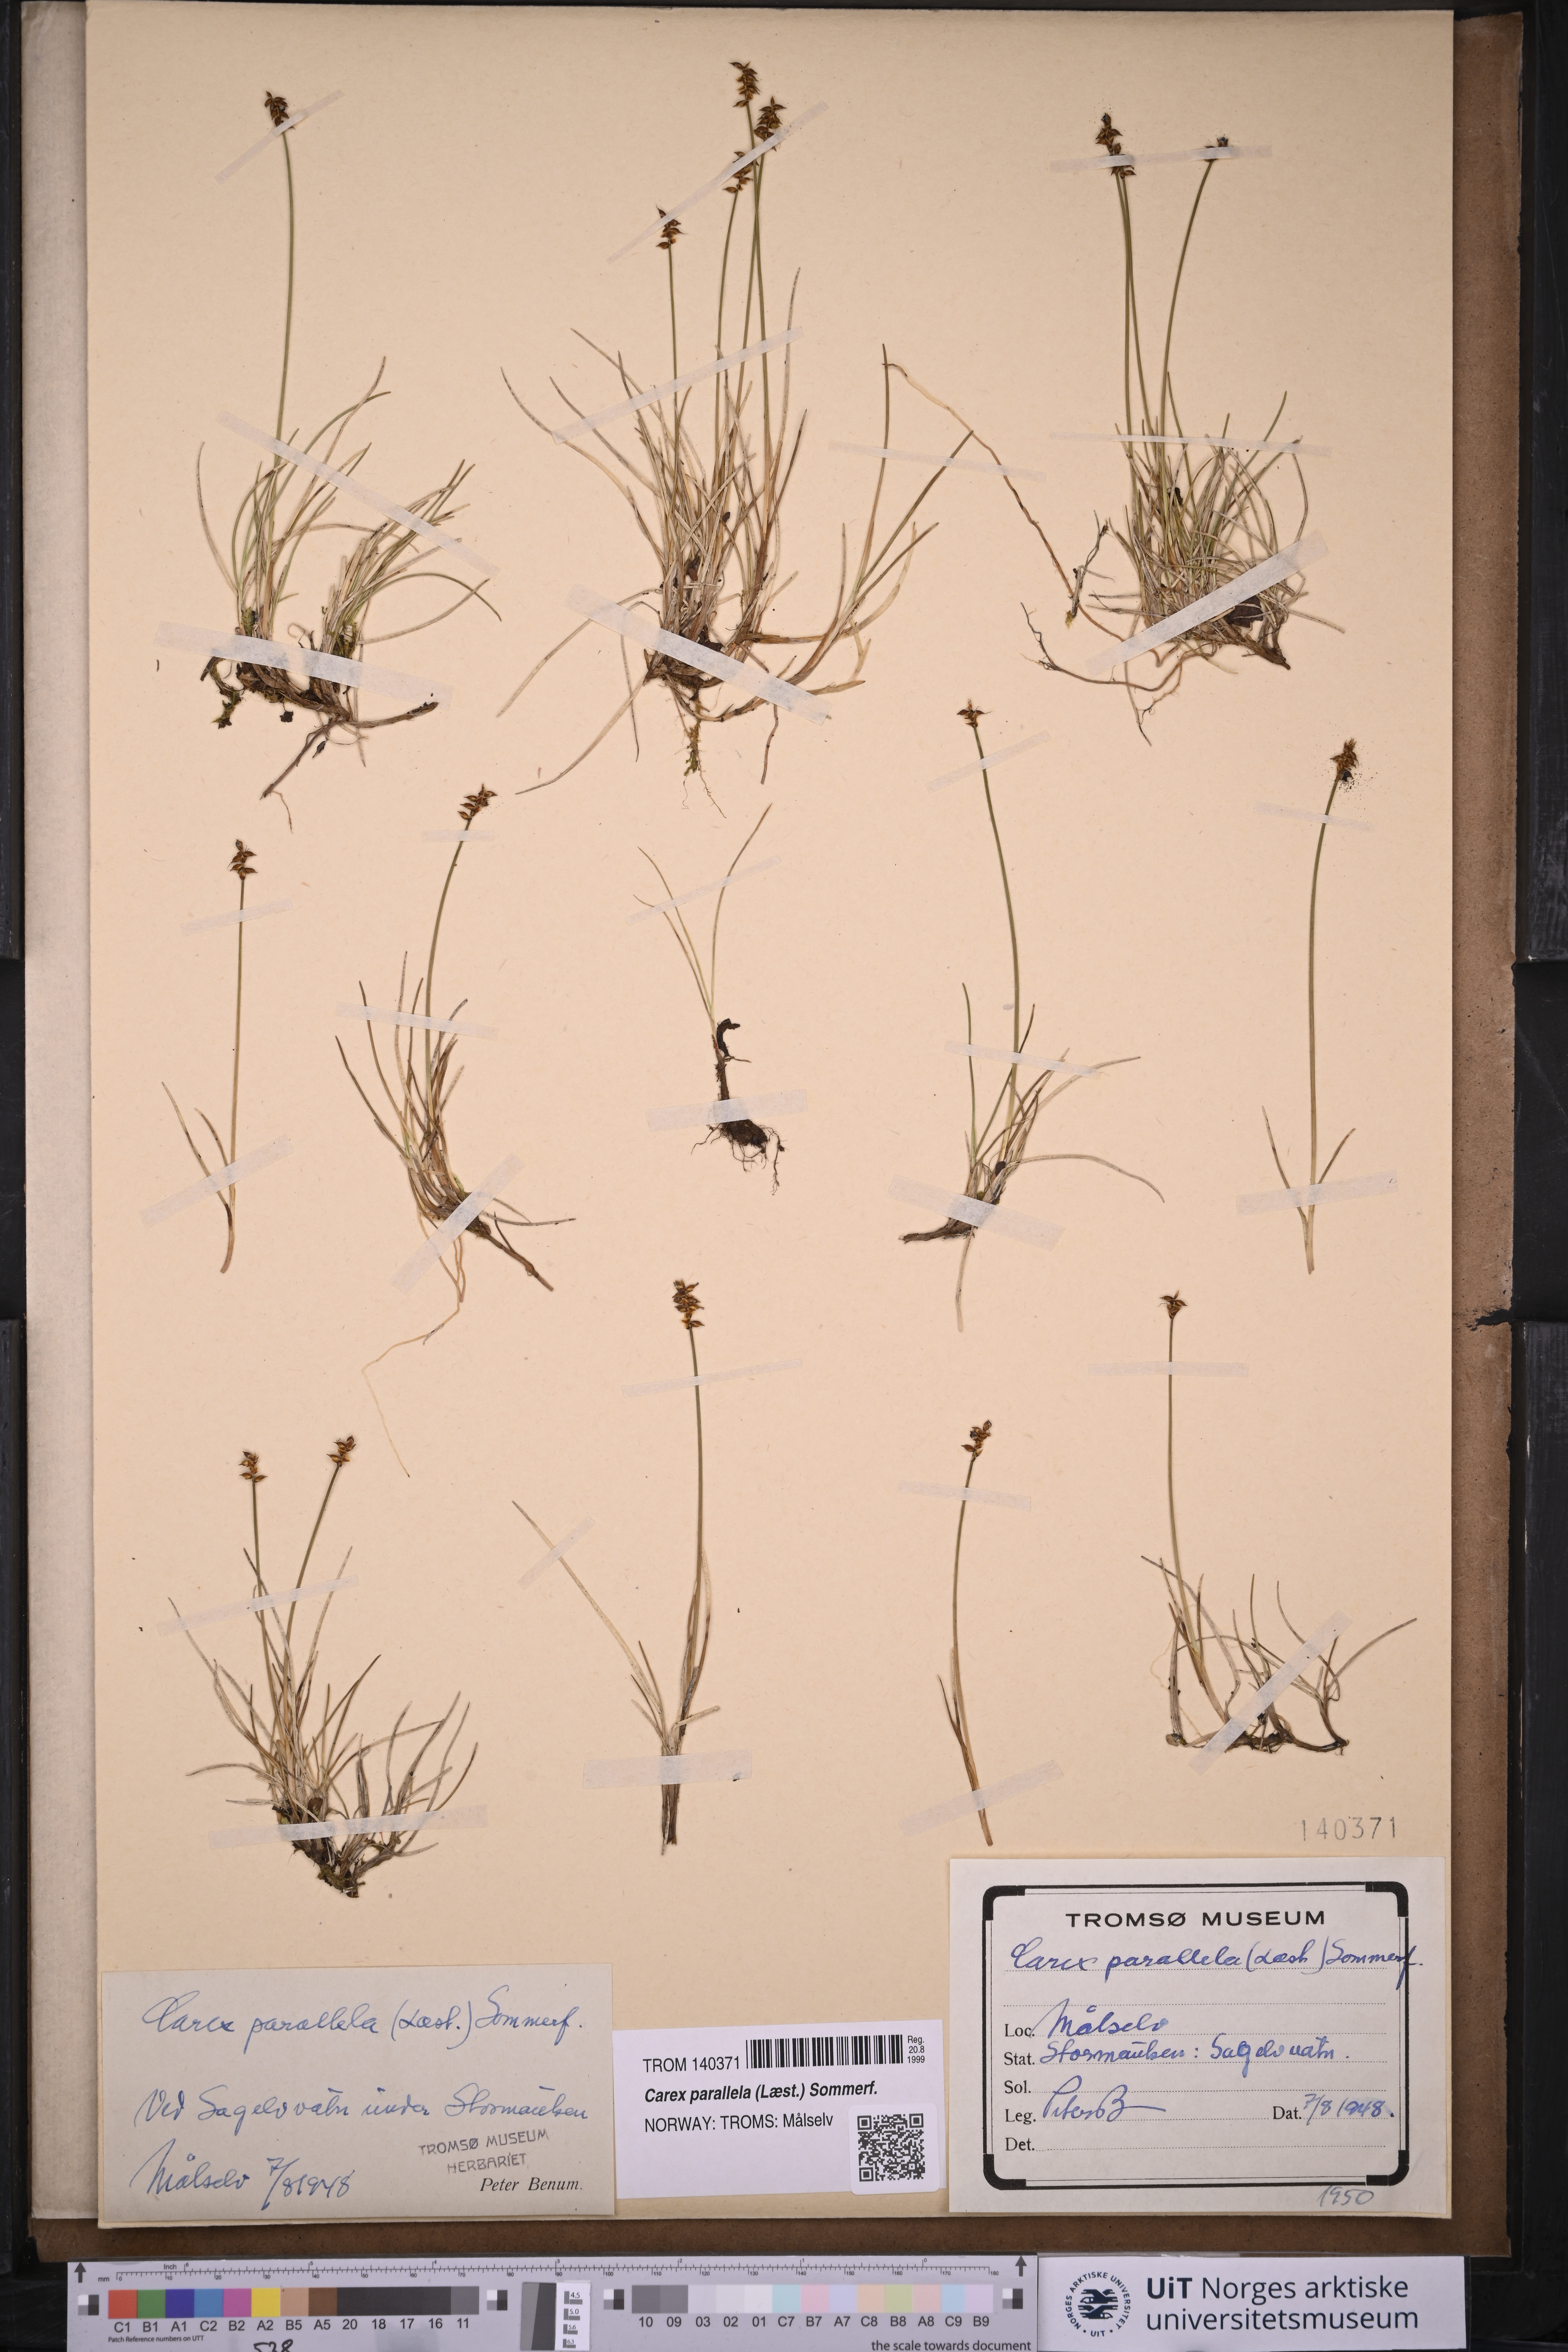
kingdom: Plantae
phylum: Tracheophyta
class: Liliopsida
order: Poales
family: Cyperaceae
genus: Carex
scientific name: Carex parallela
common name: Parallel sedge
